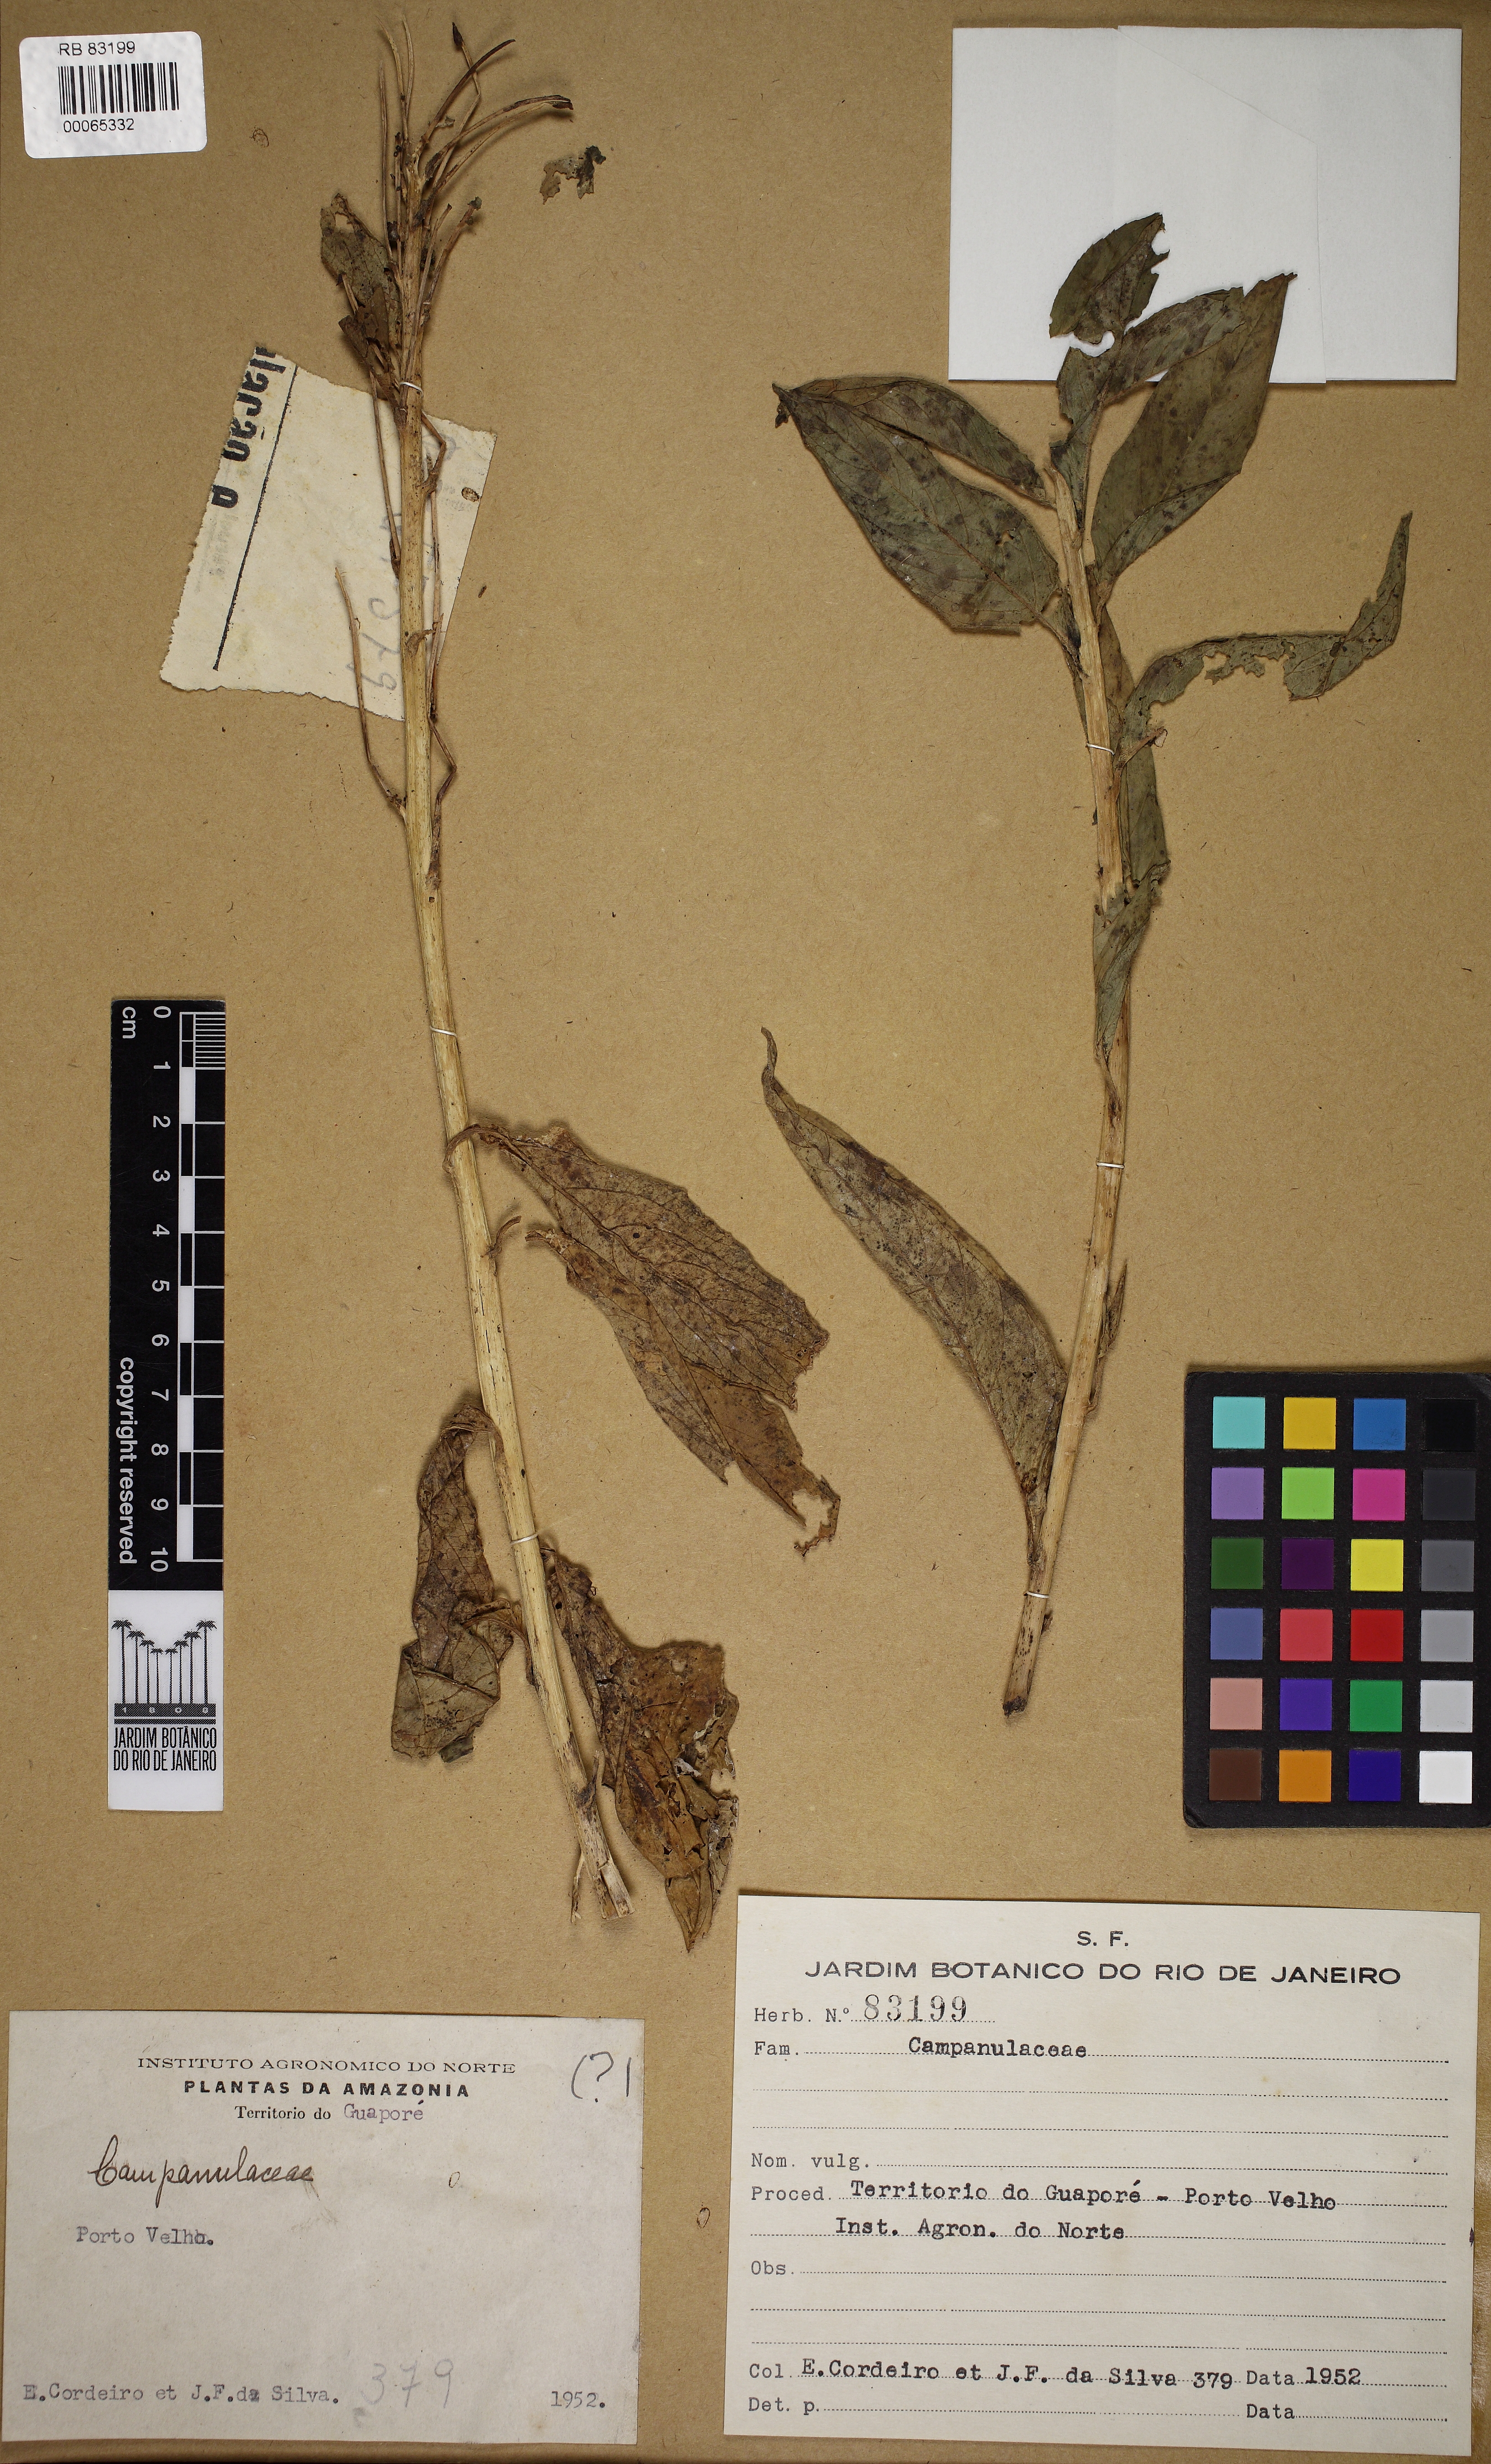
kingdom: Plantae
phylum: Tracheophyta
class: Magnoliopsida
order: Asterales
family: Campanulaceae
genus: Centropogon
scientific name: Centropogon cornutus
